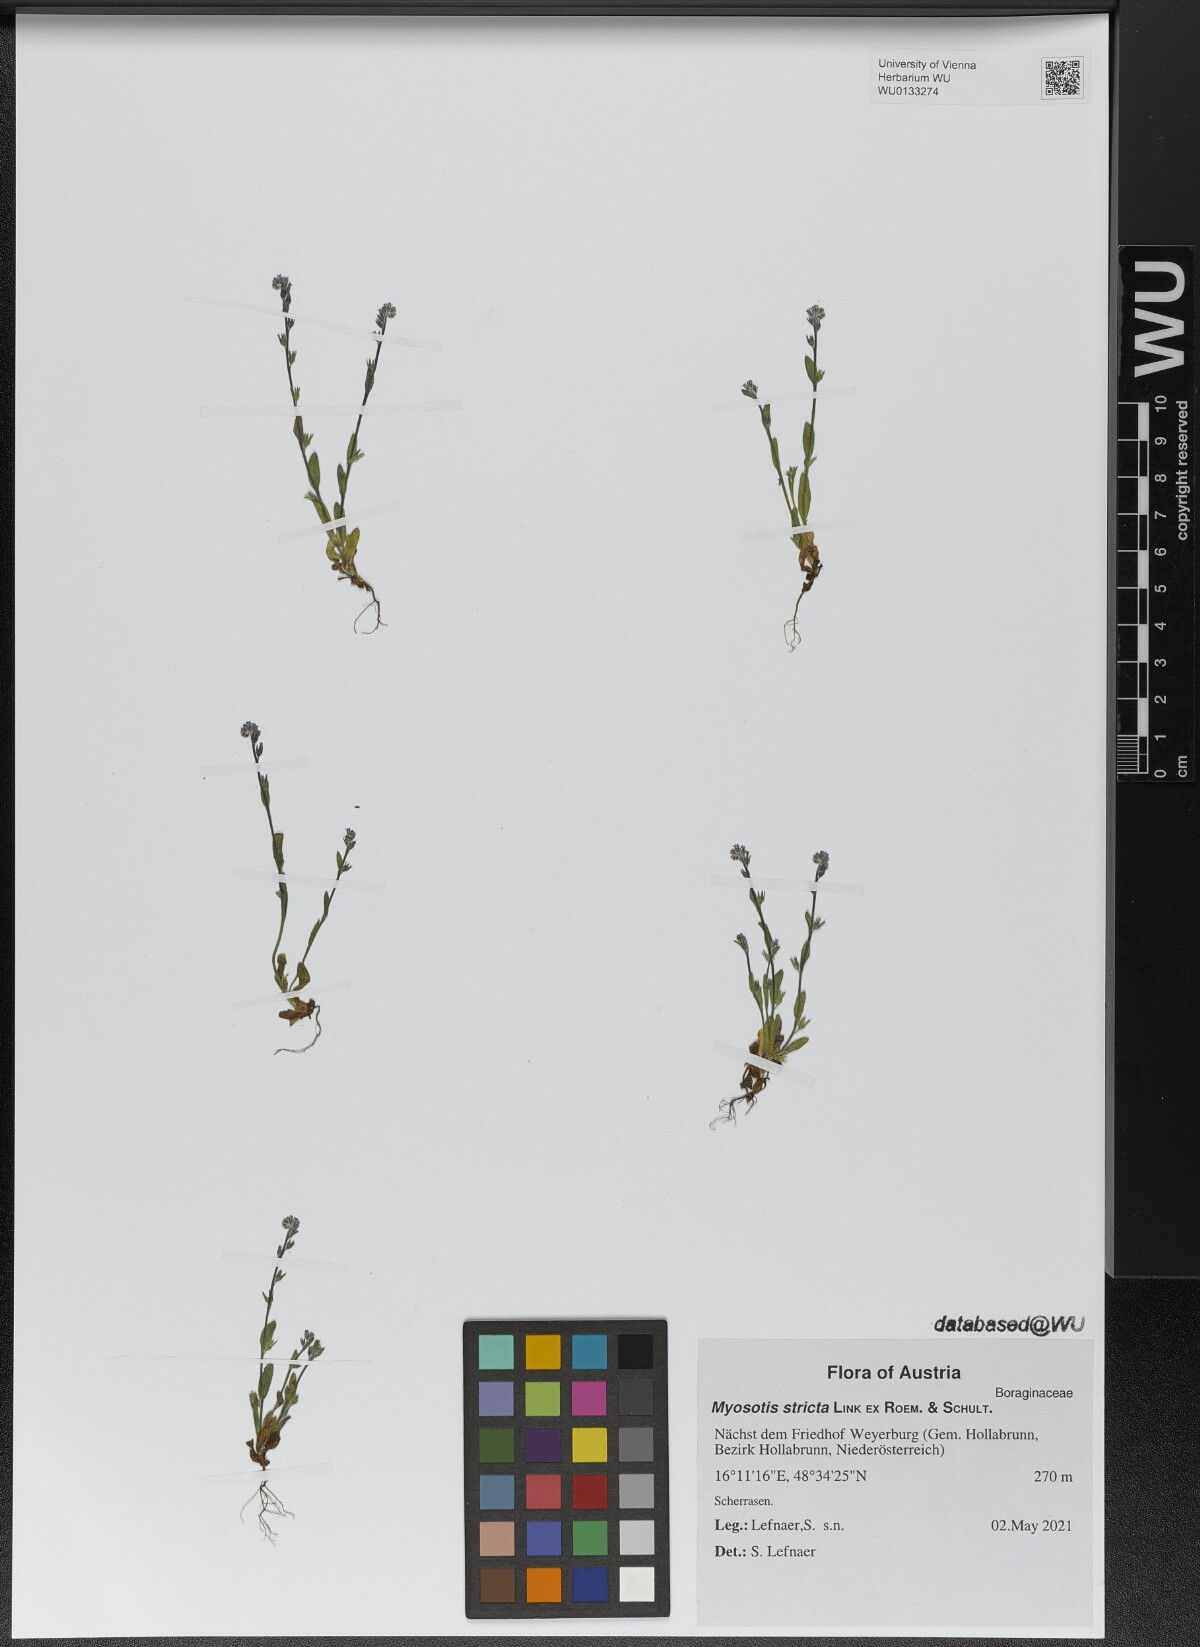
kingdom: Plantae
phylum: Tracheophyta
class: Magnoliopsida
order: Boraginales
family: Boraginaceae
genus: Myosotis
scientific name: Myosotis stricta
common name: Strict forget-me-not
